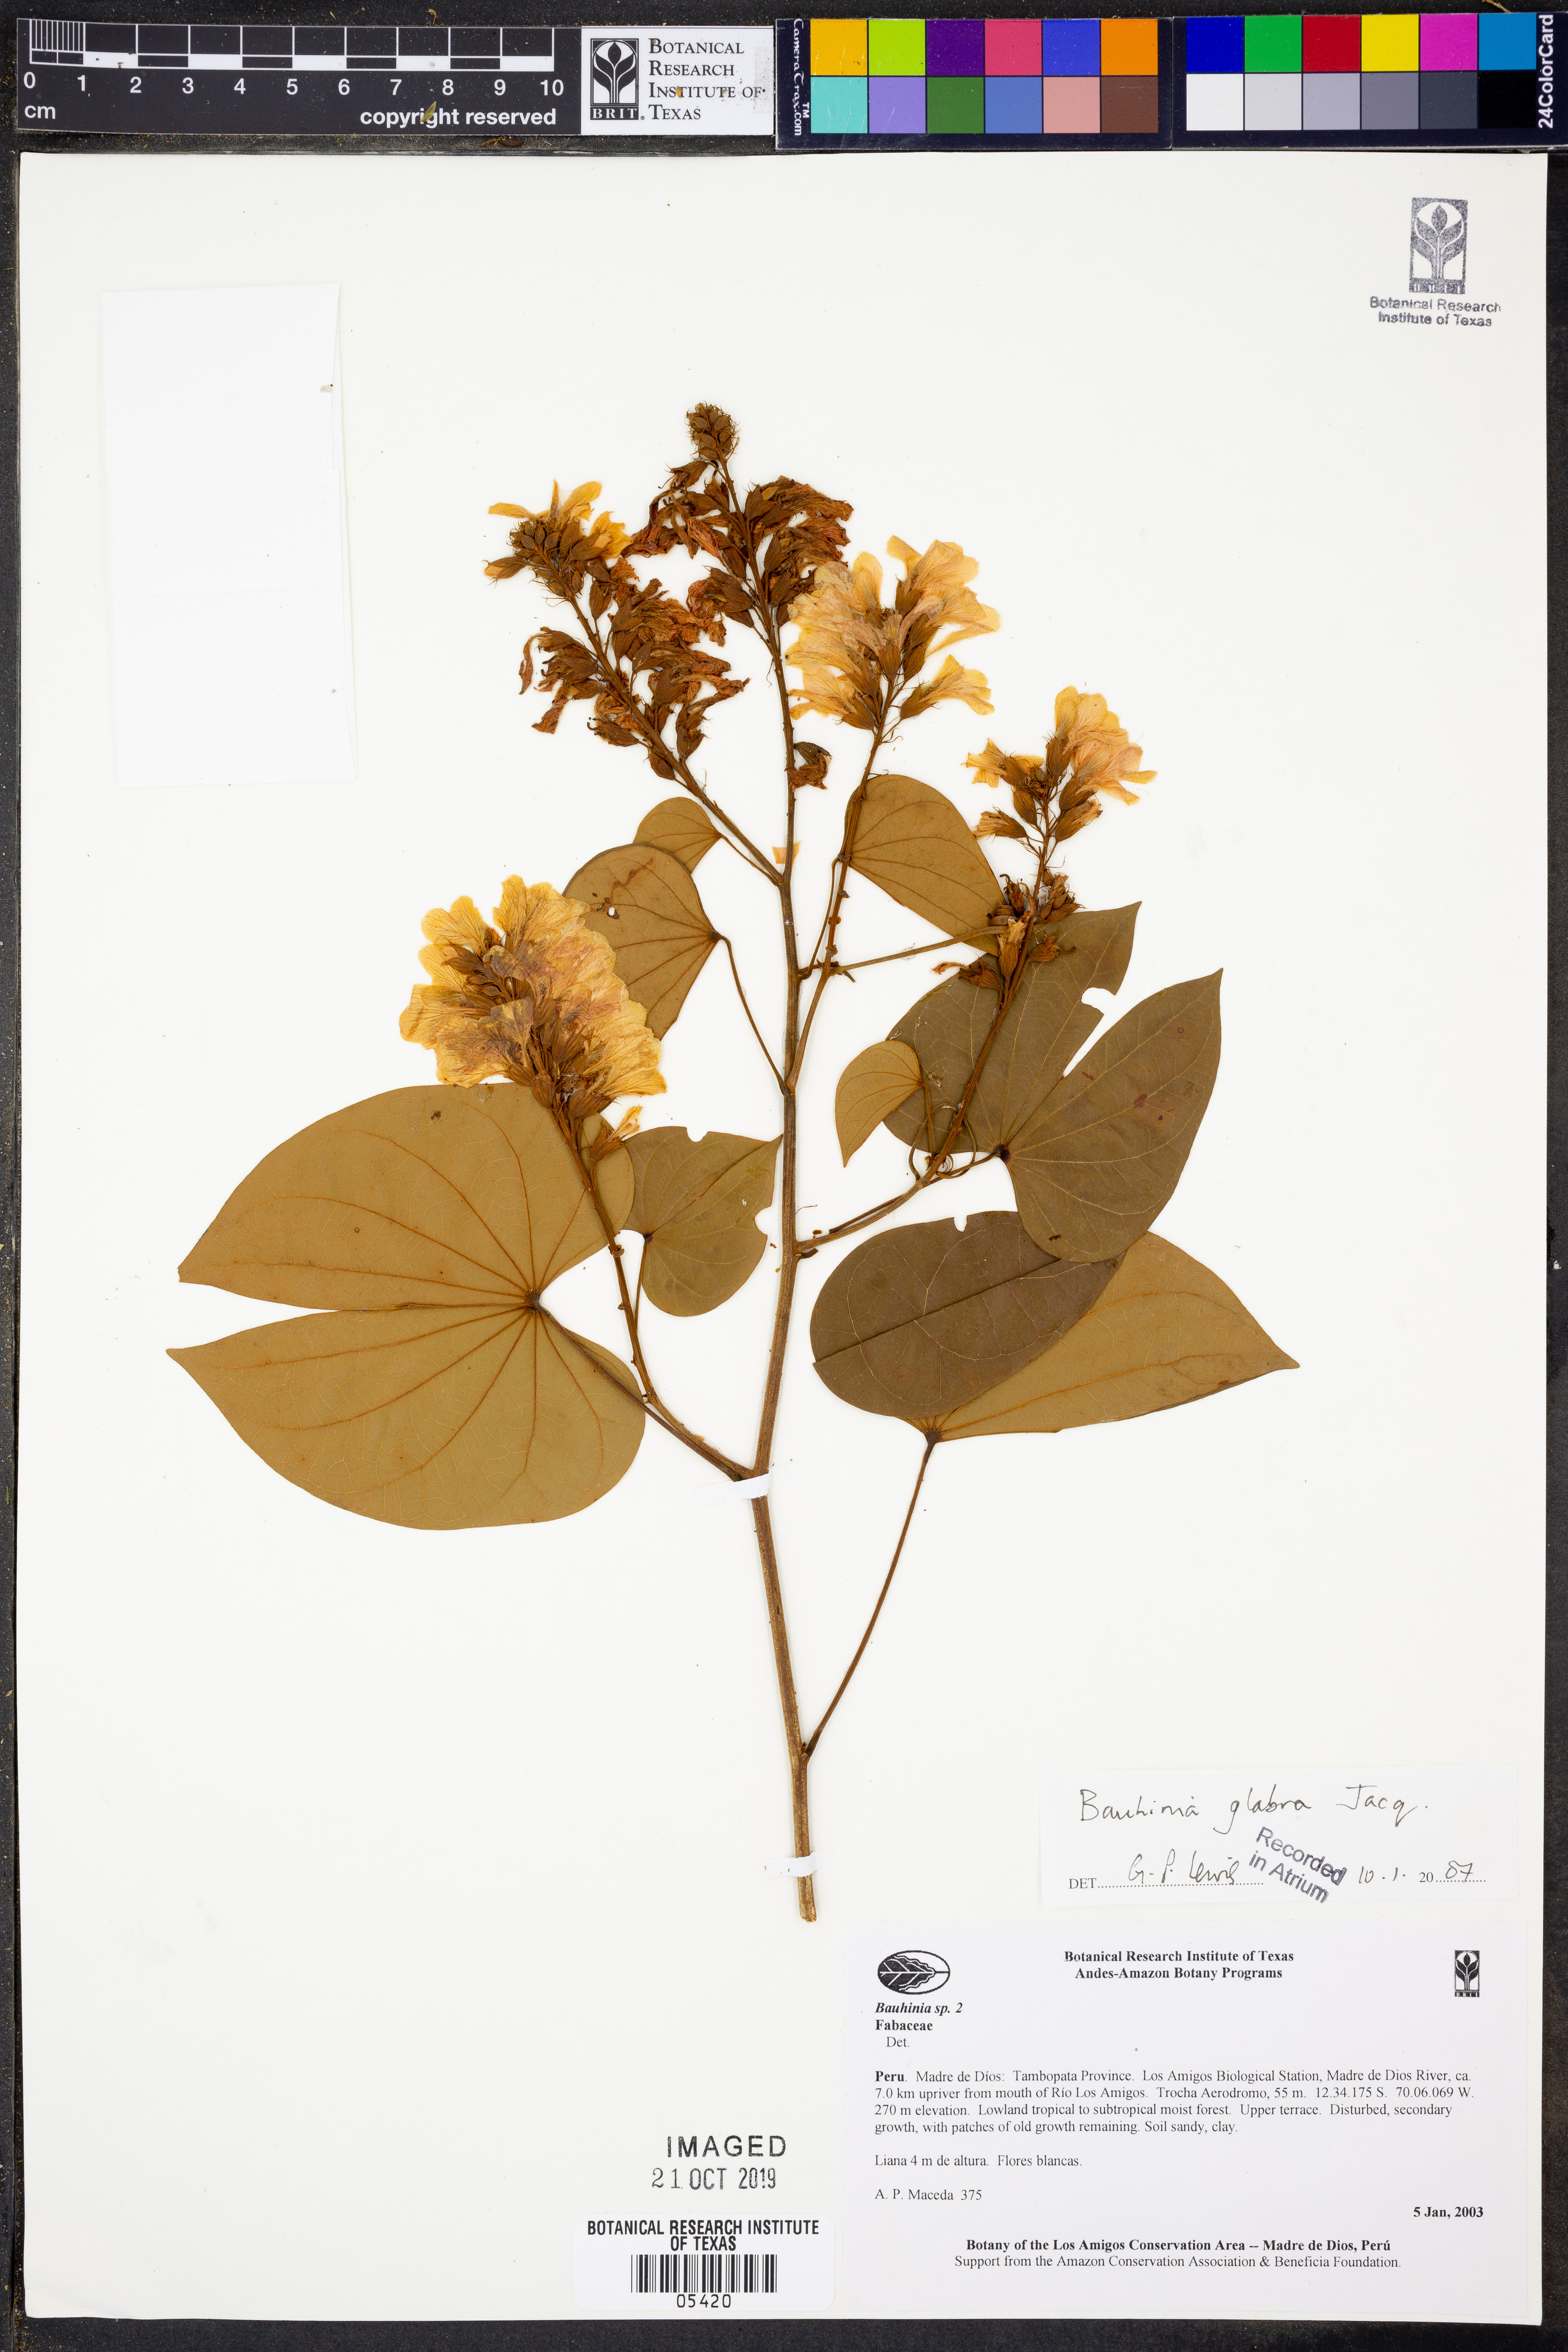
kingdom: Plantae
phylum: Tracheophyta
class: Magnoliopsida
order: Fabales
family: Fabaceae
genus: Bauhinia
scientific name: Bauhinia
